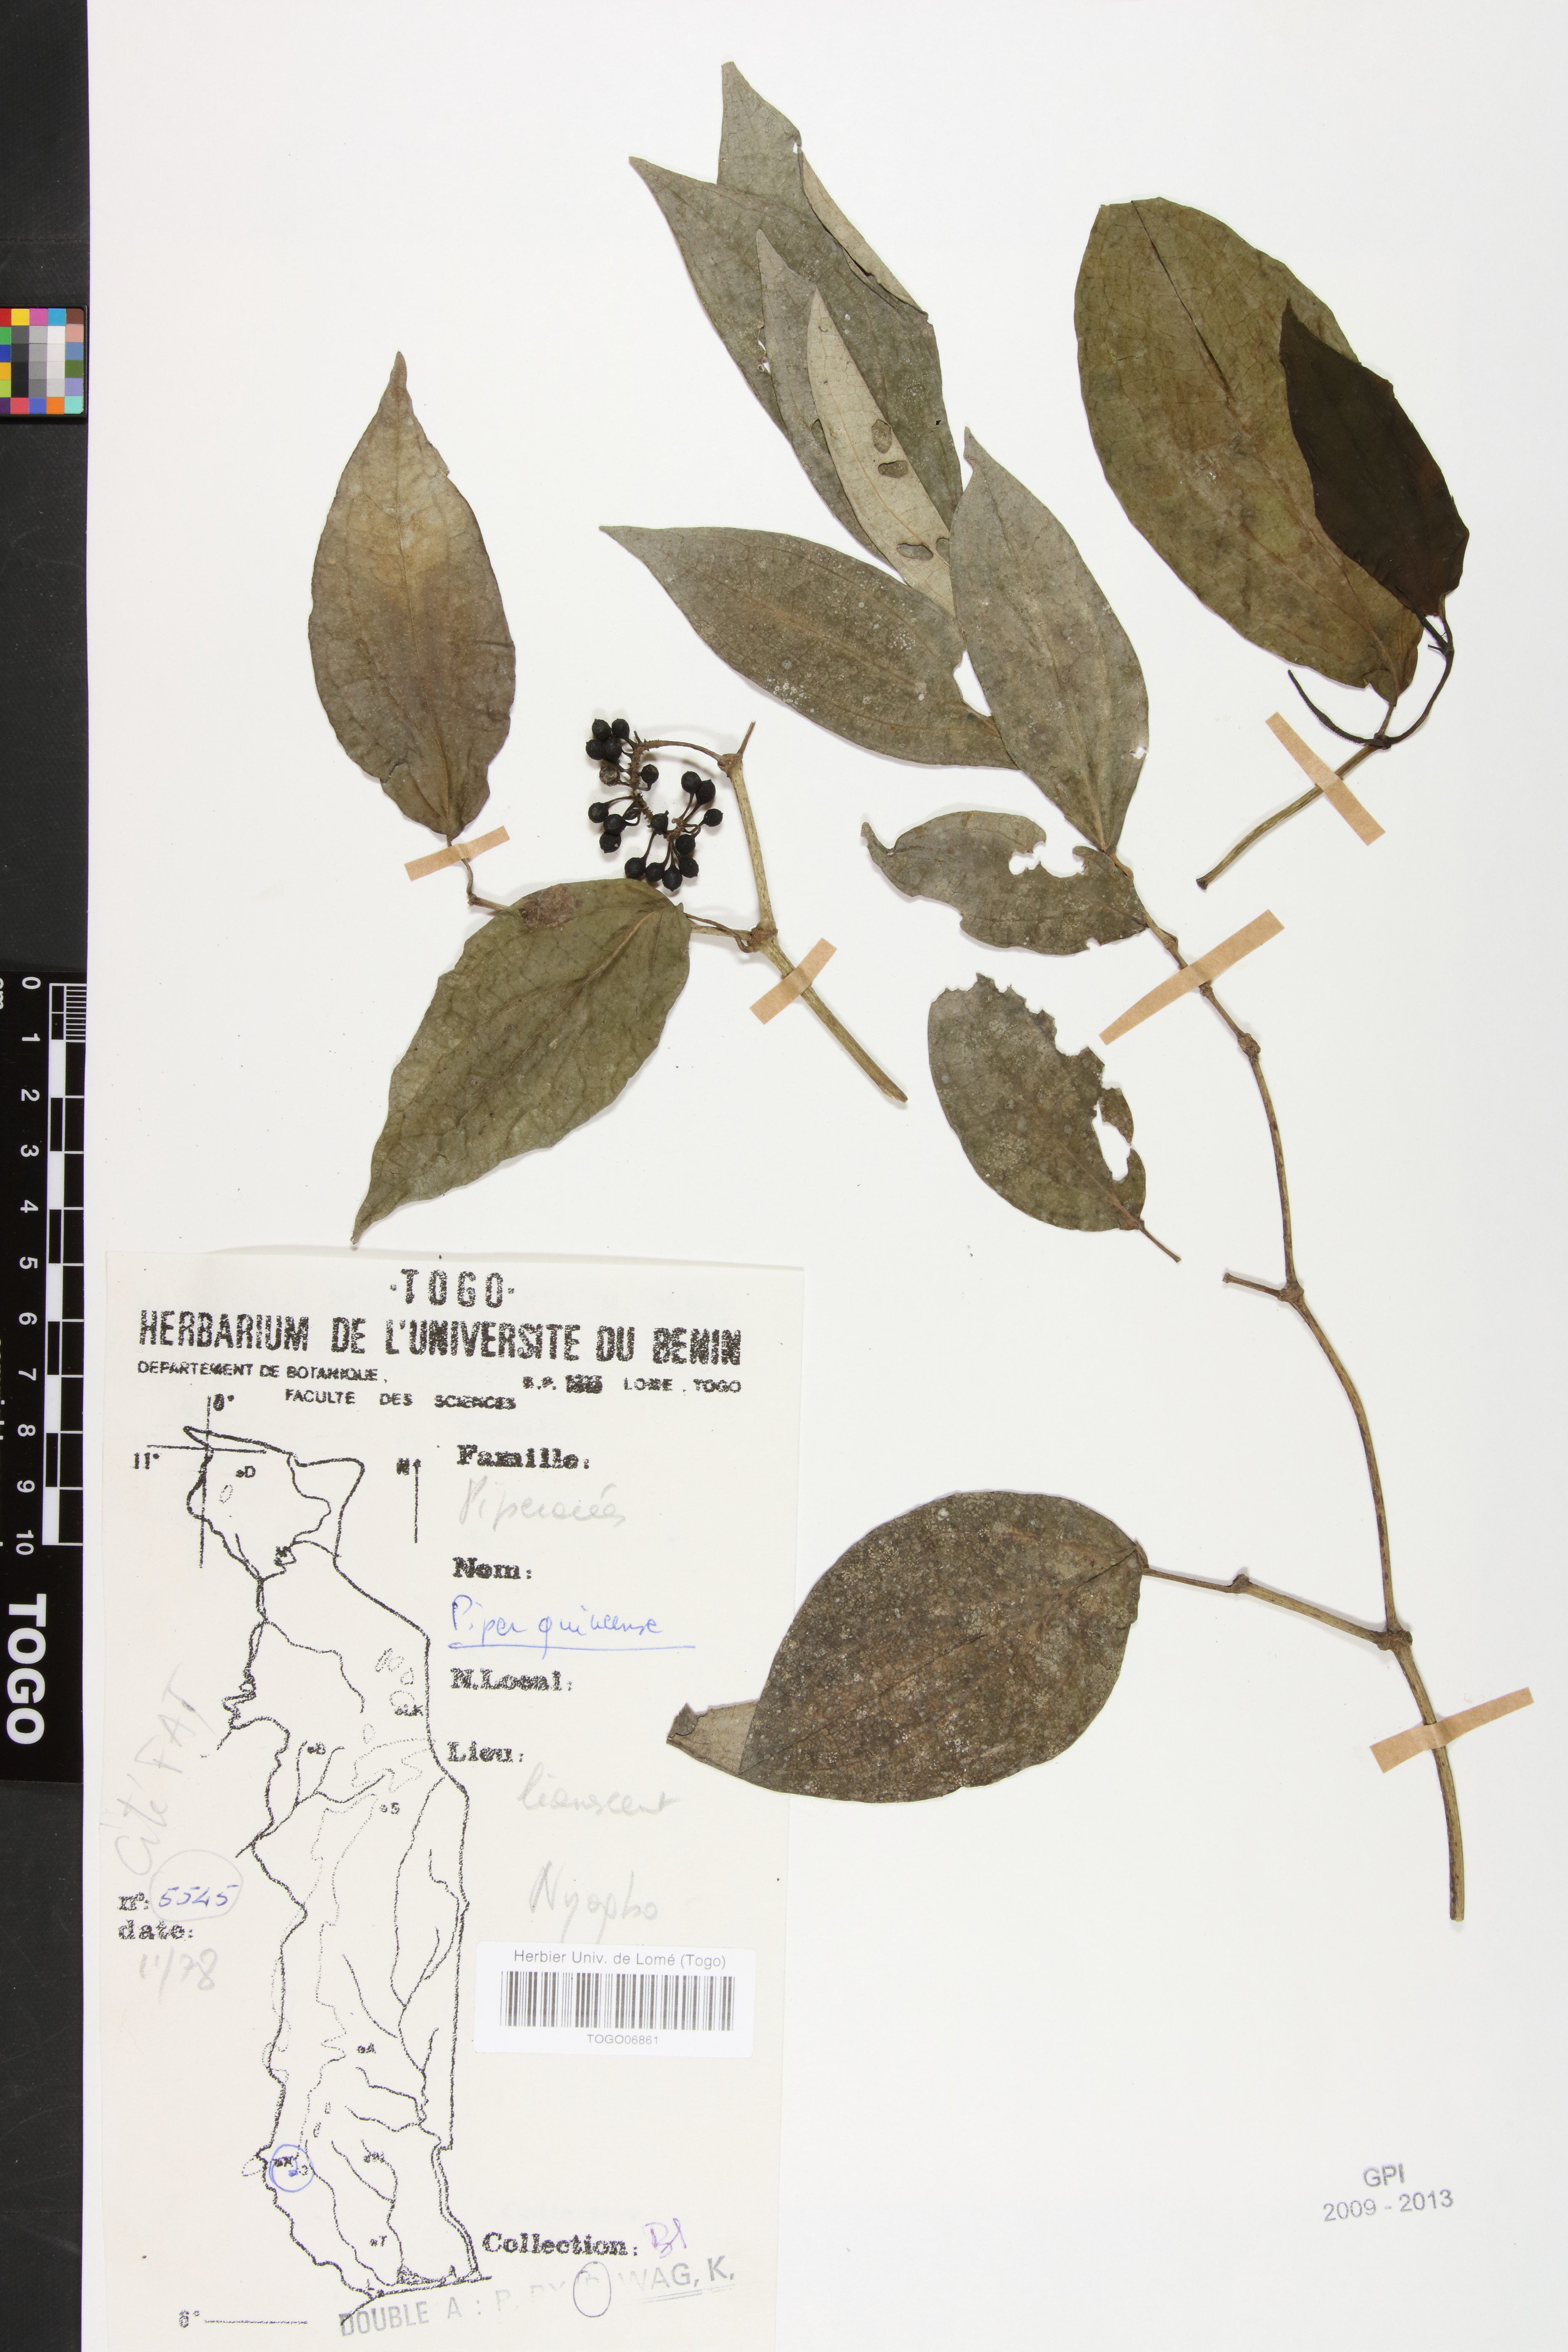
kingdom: Plantae
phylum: Tracheophyta
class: Magnoliopsida
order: Piperales
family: Piperaceae
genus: Piper
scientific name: Piper guineense
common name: Benin pepper
